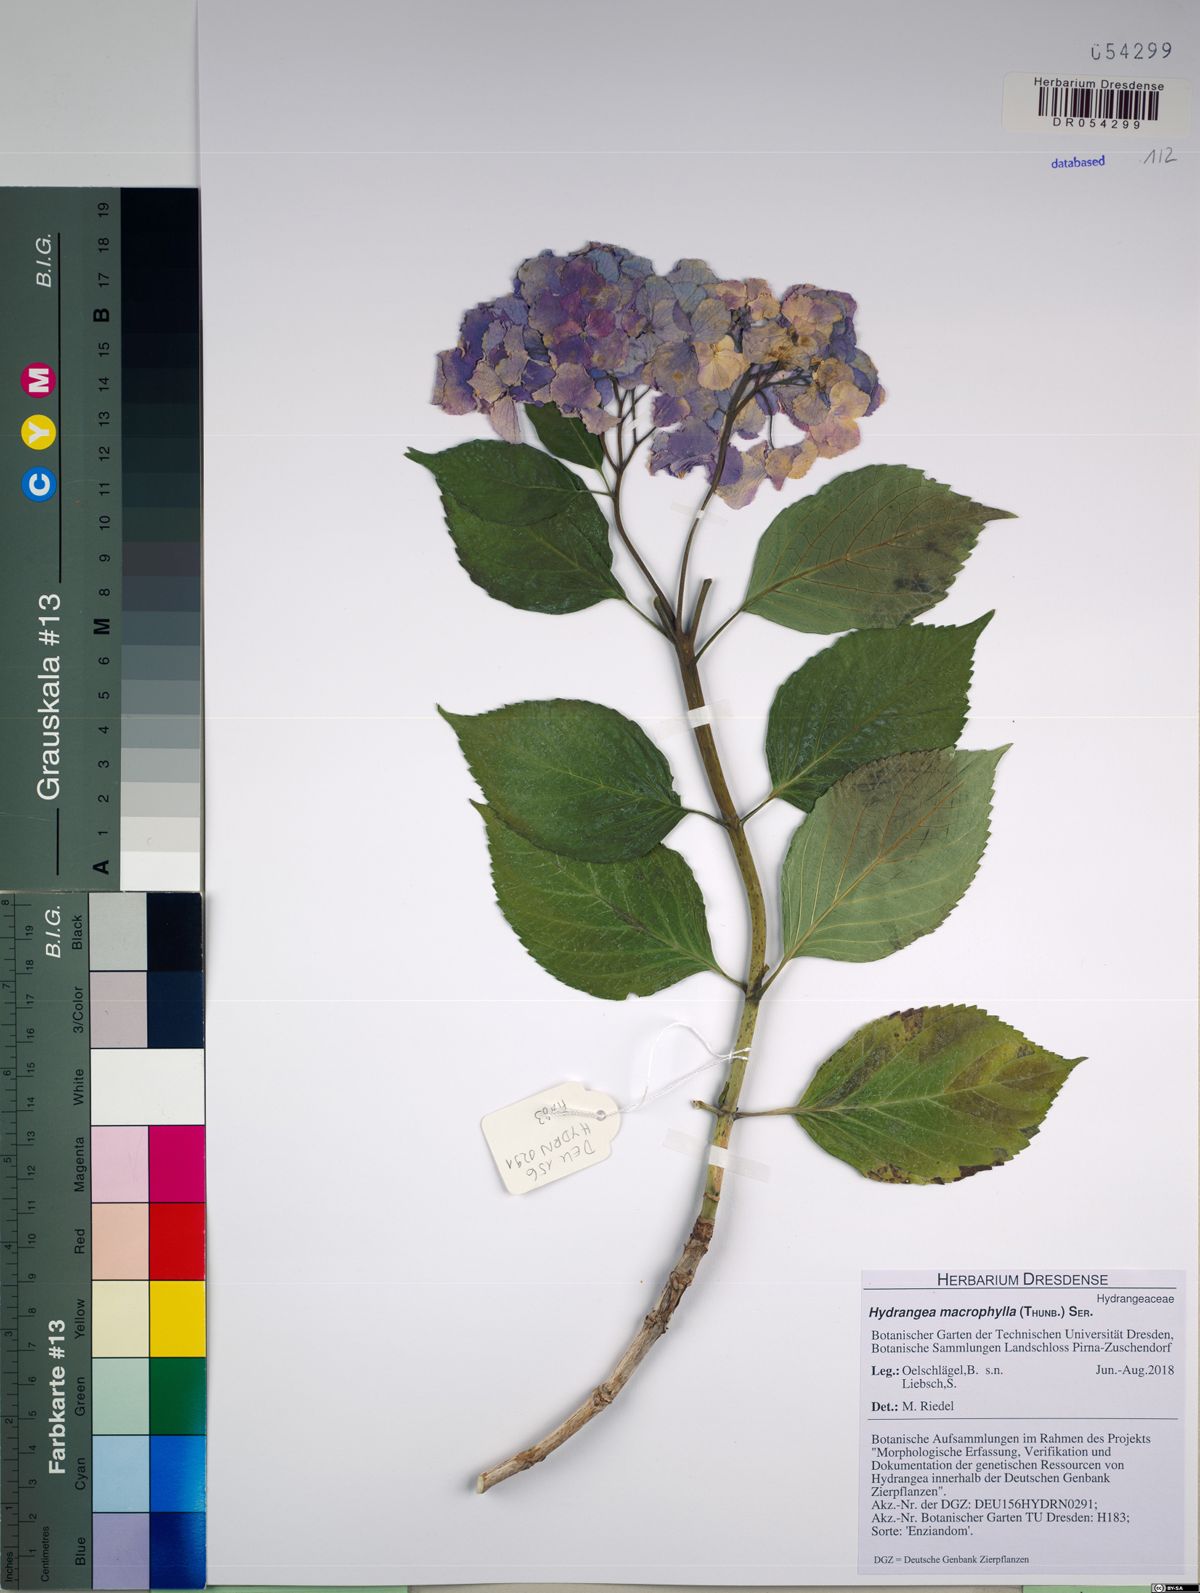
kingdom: Plantae
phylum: Tracheophyta
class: Magnoliopsida
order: Cornales
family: Hydrangeaceae
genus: Hydrangea
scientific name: Hydrangea macrophylla
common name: Hydrangea
